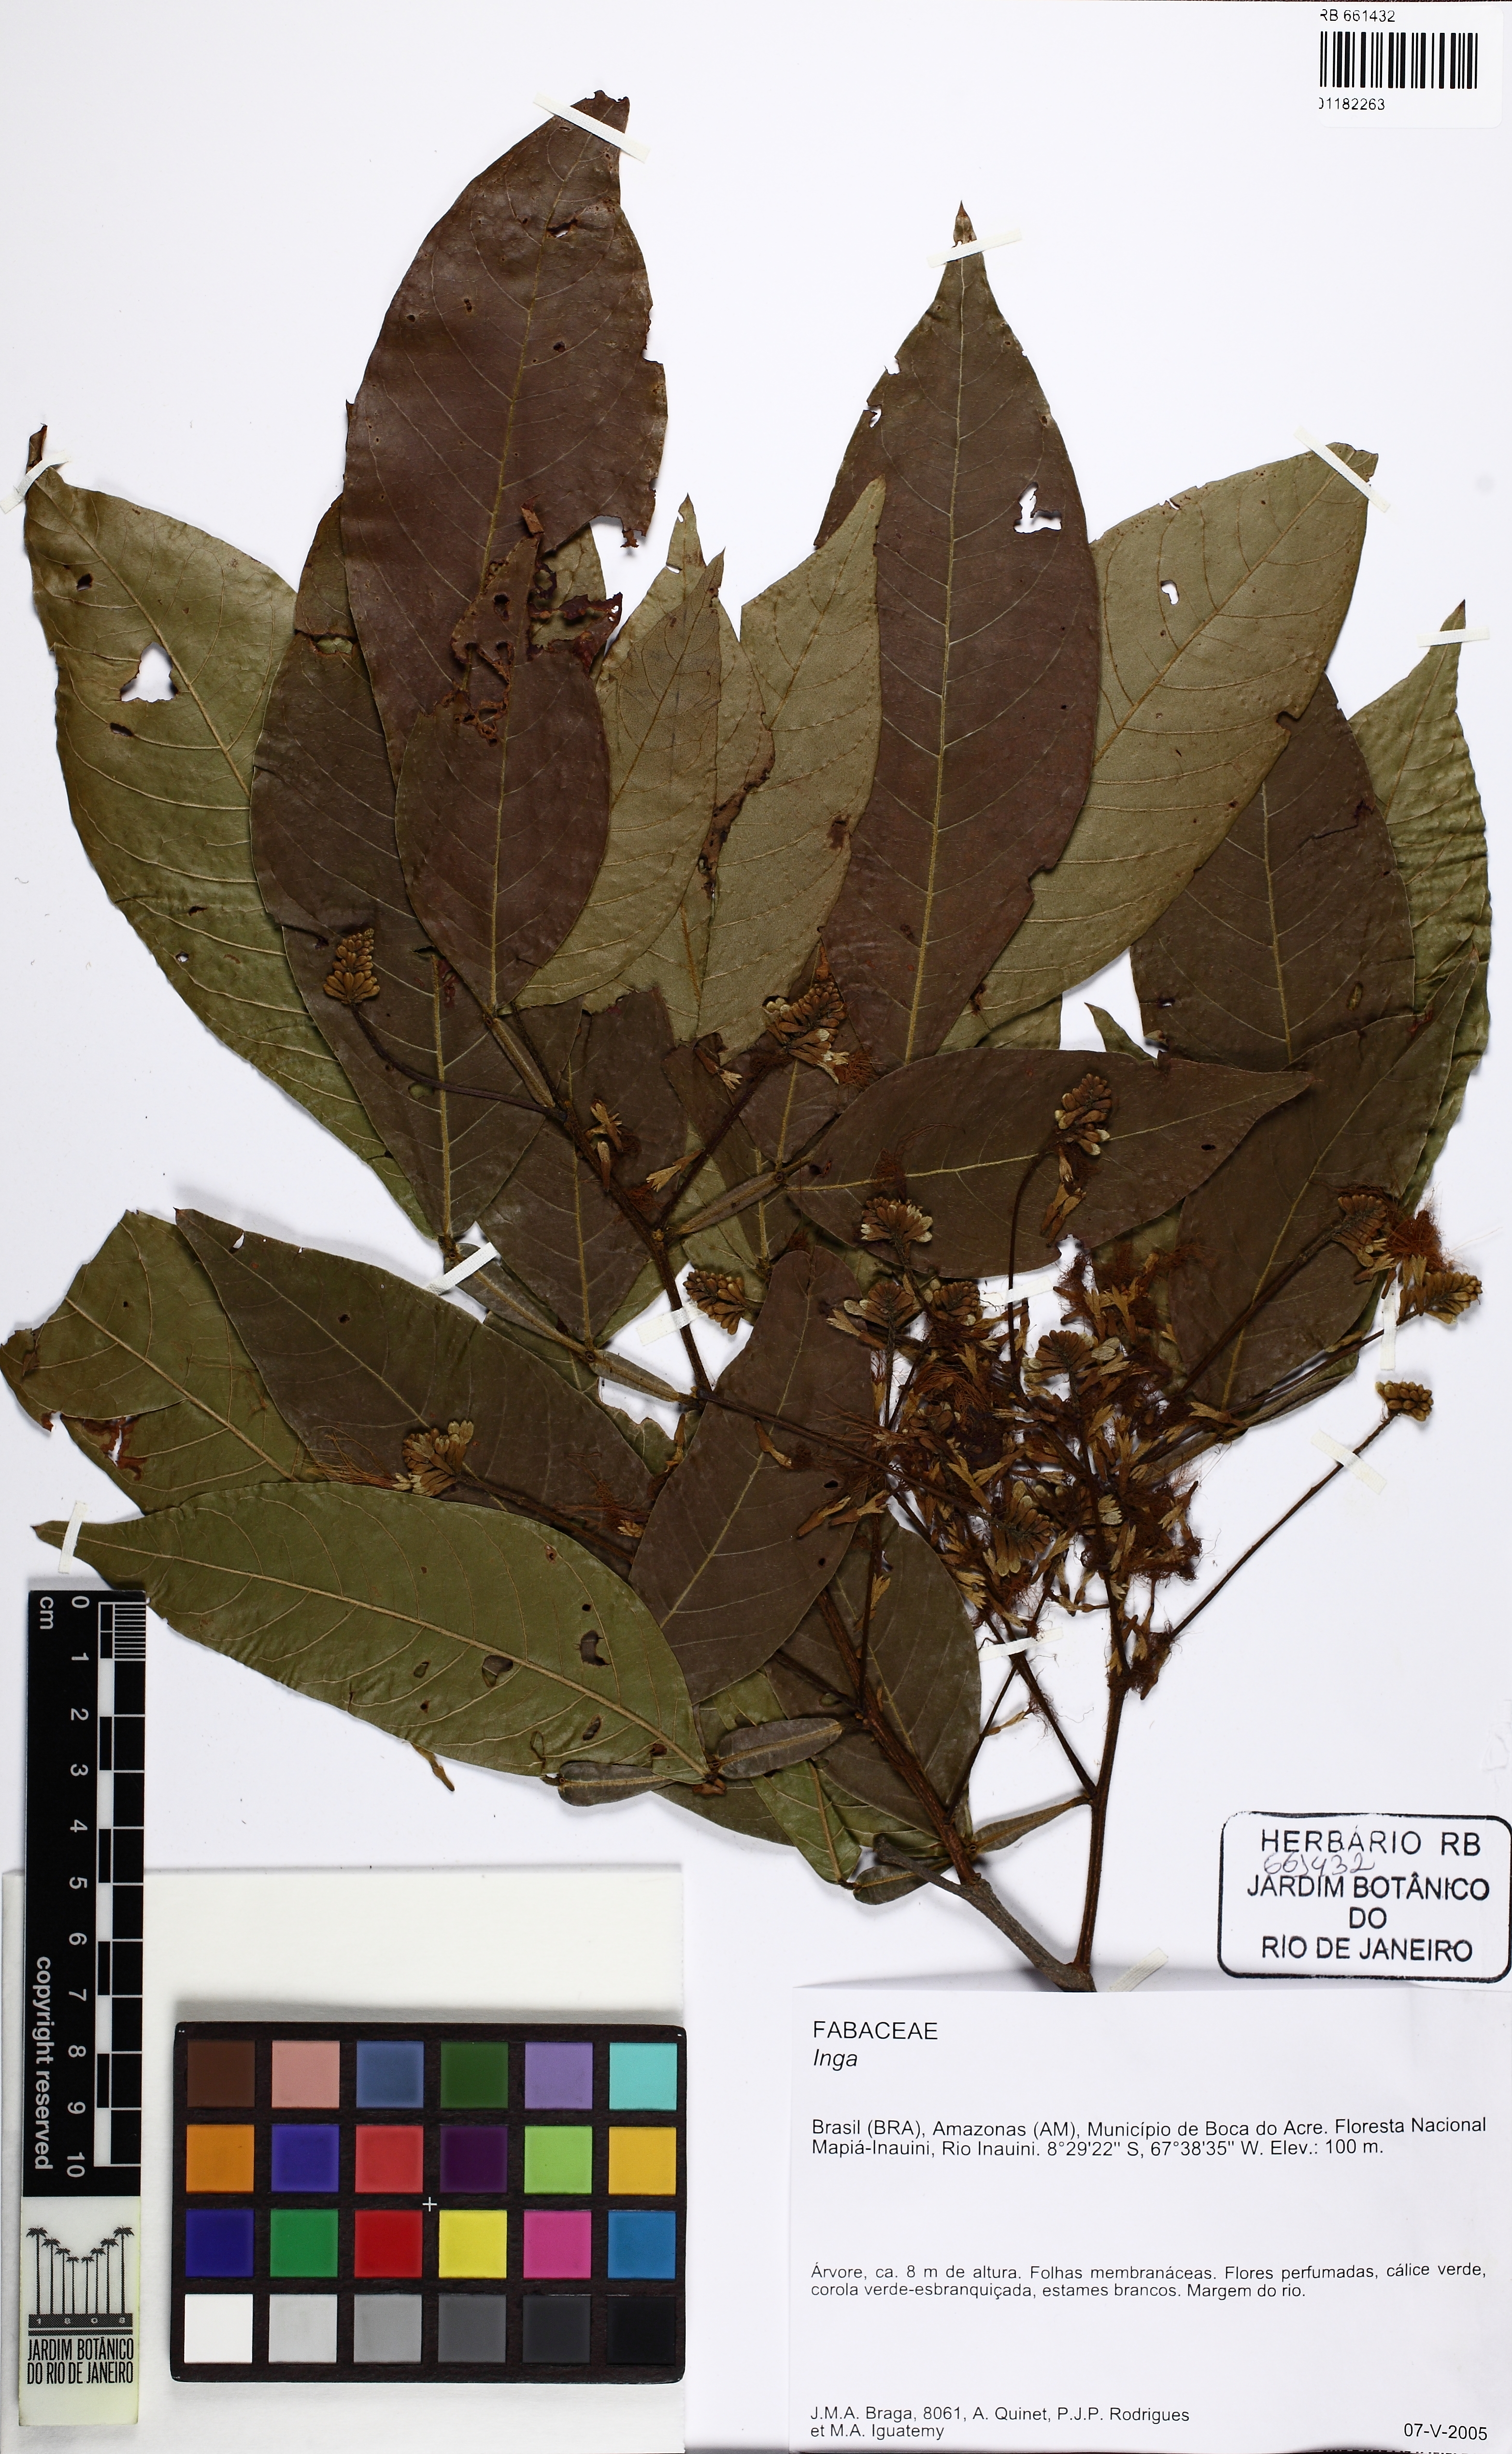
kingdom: Plantae
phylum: Tracheophyta
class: Magnoliopsida
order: Fabales
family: Fabaceae
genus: Inga
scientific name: Inga
